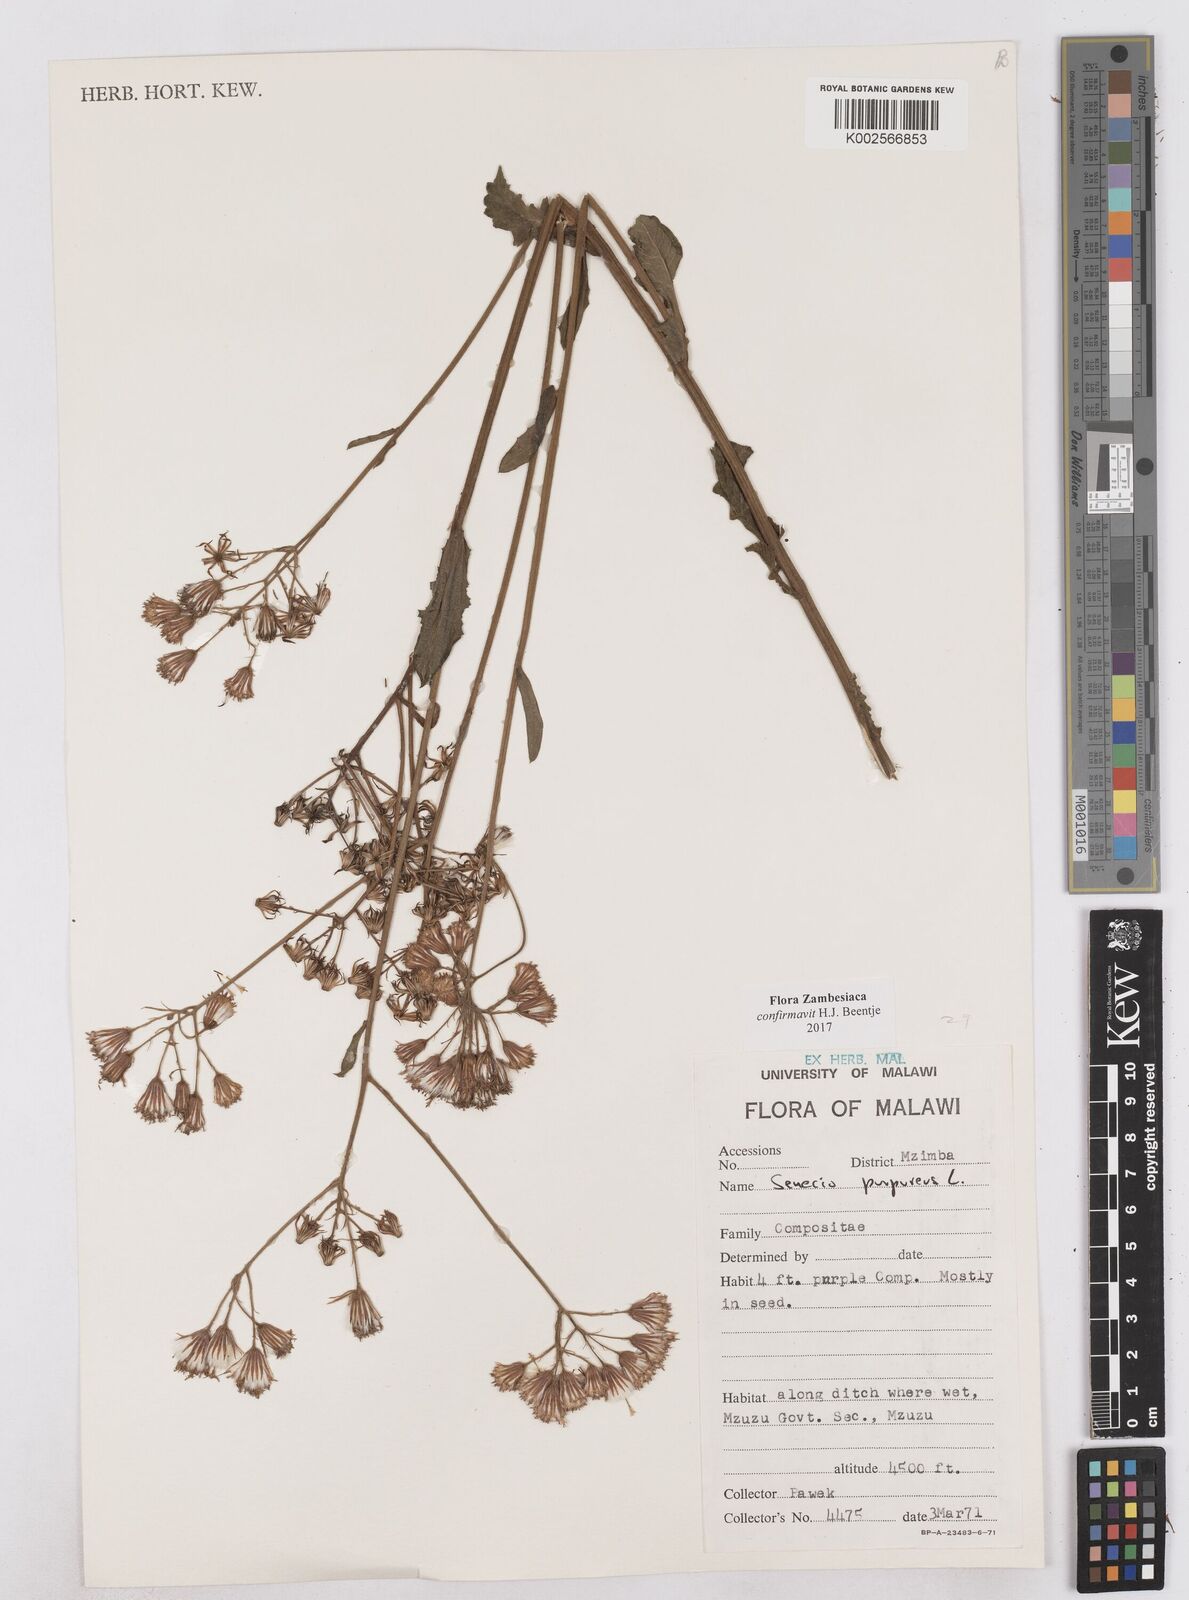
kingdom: Plantae
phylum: Tracheophyta
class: Magnoliopsida
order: Asterales
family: Asteraceae
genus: Senecio
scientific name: Senecio purpureus
